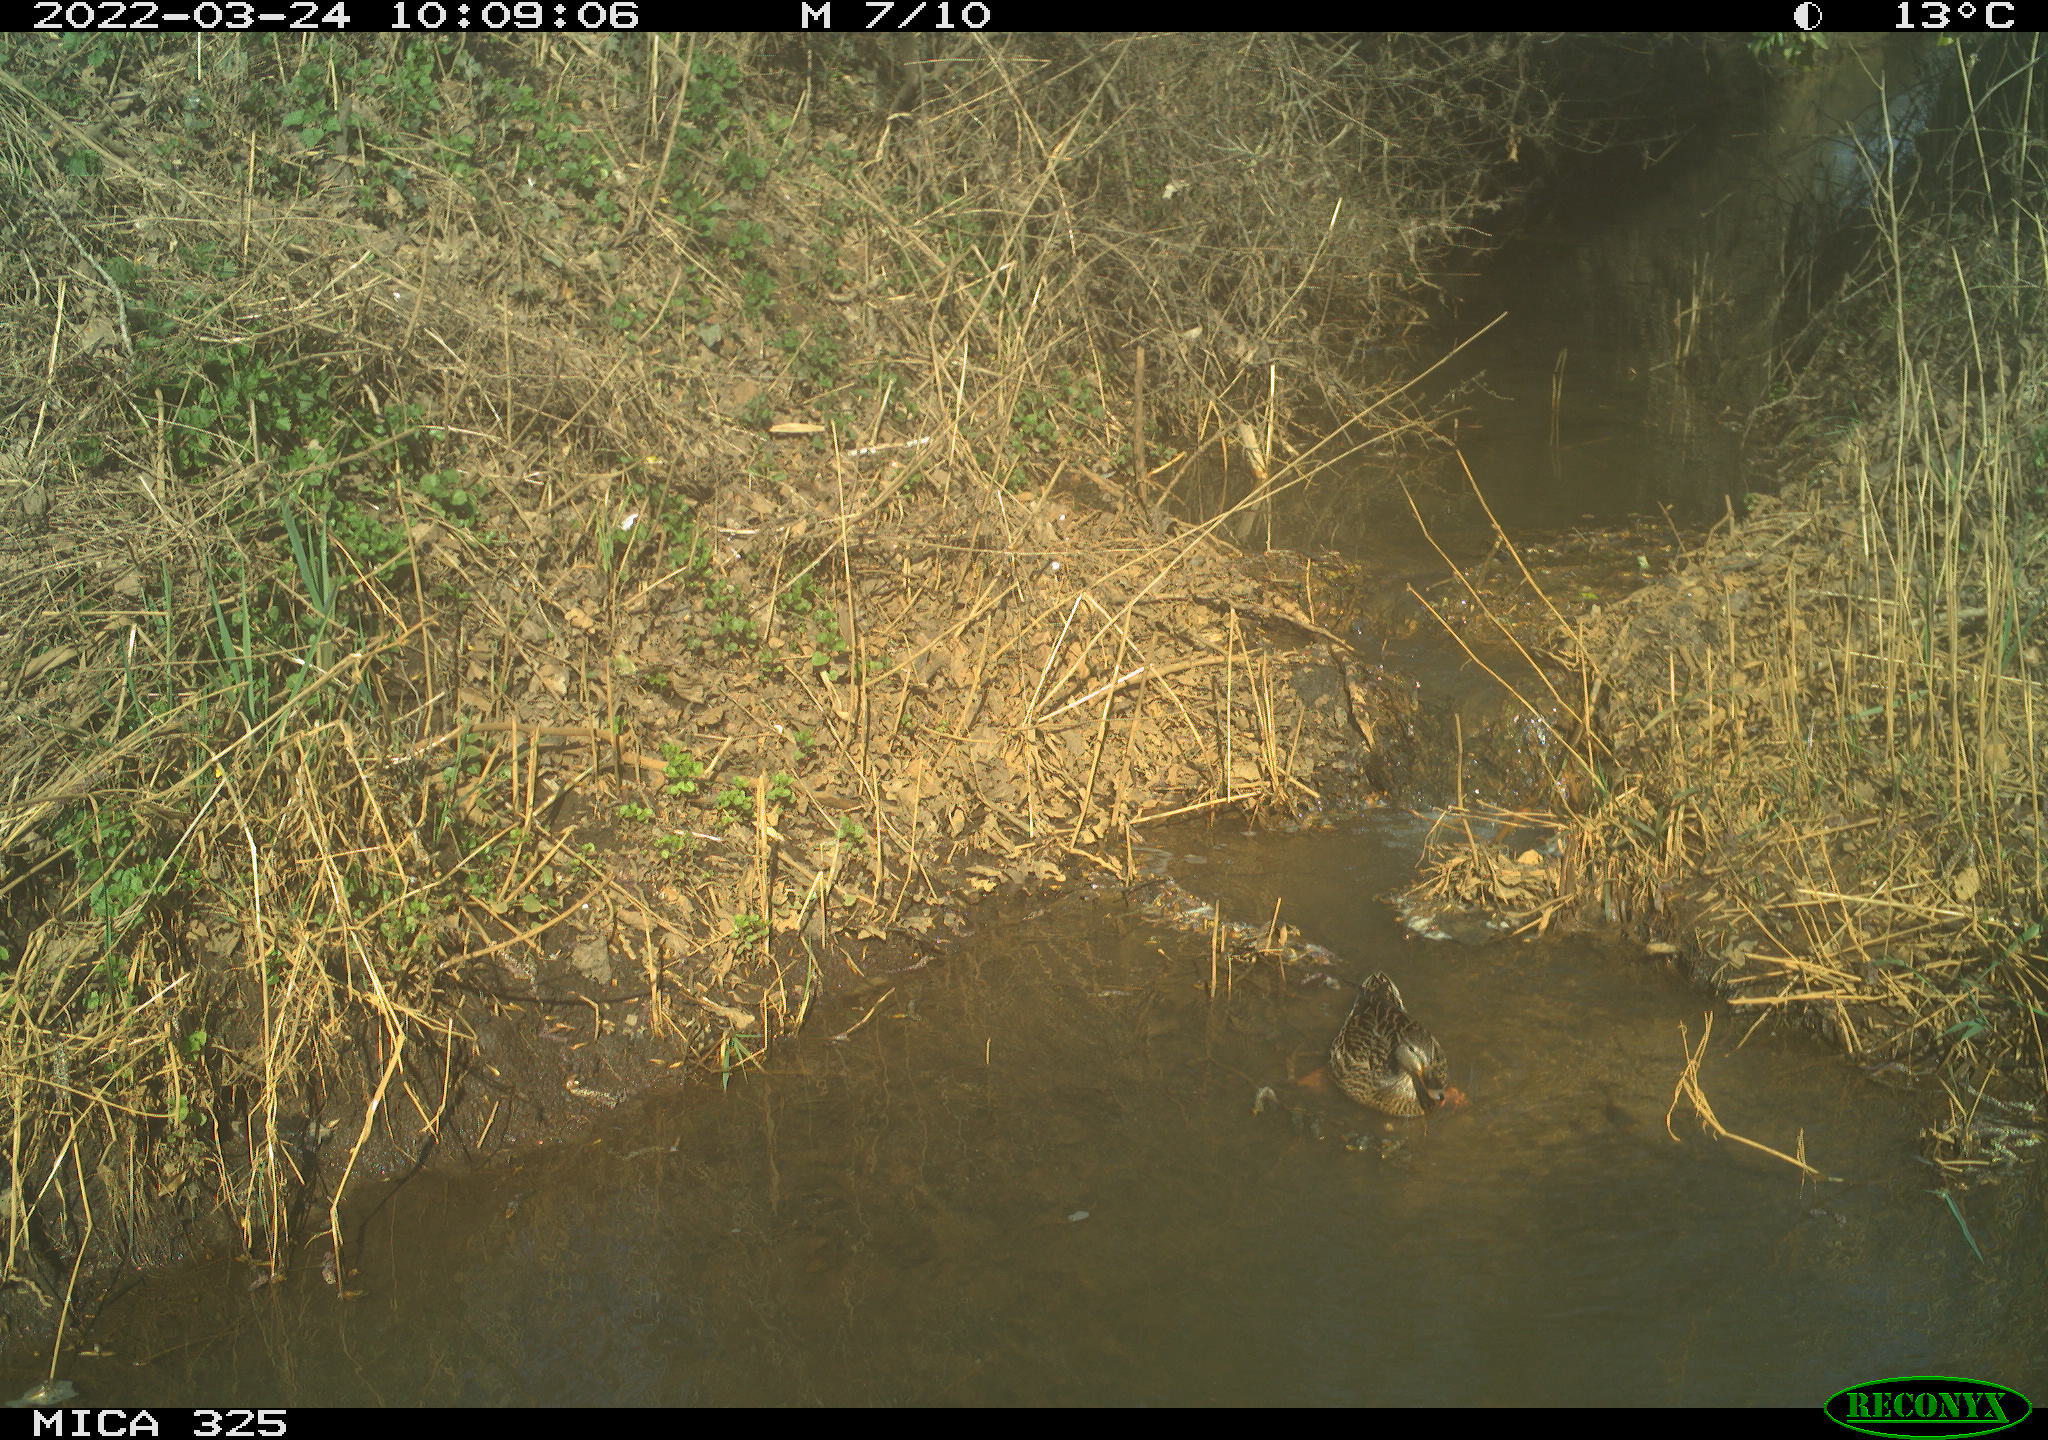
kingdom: Animalia
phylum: Chordata
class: Aves
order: Anseriformes
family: Anatidae
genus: Anas
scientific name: Anas platyrhynchos
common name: Mallard
